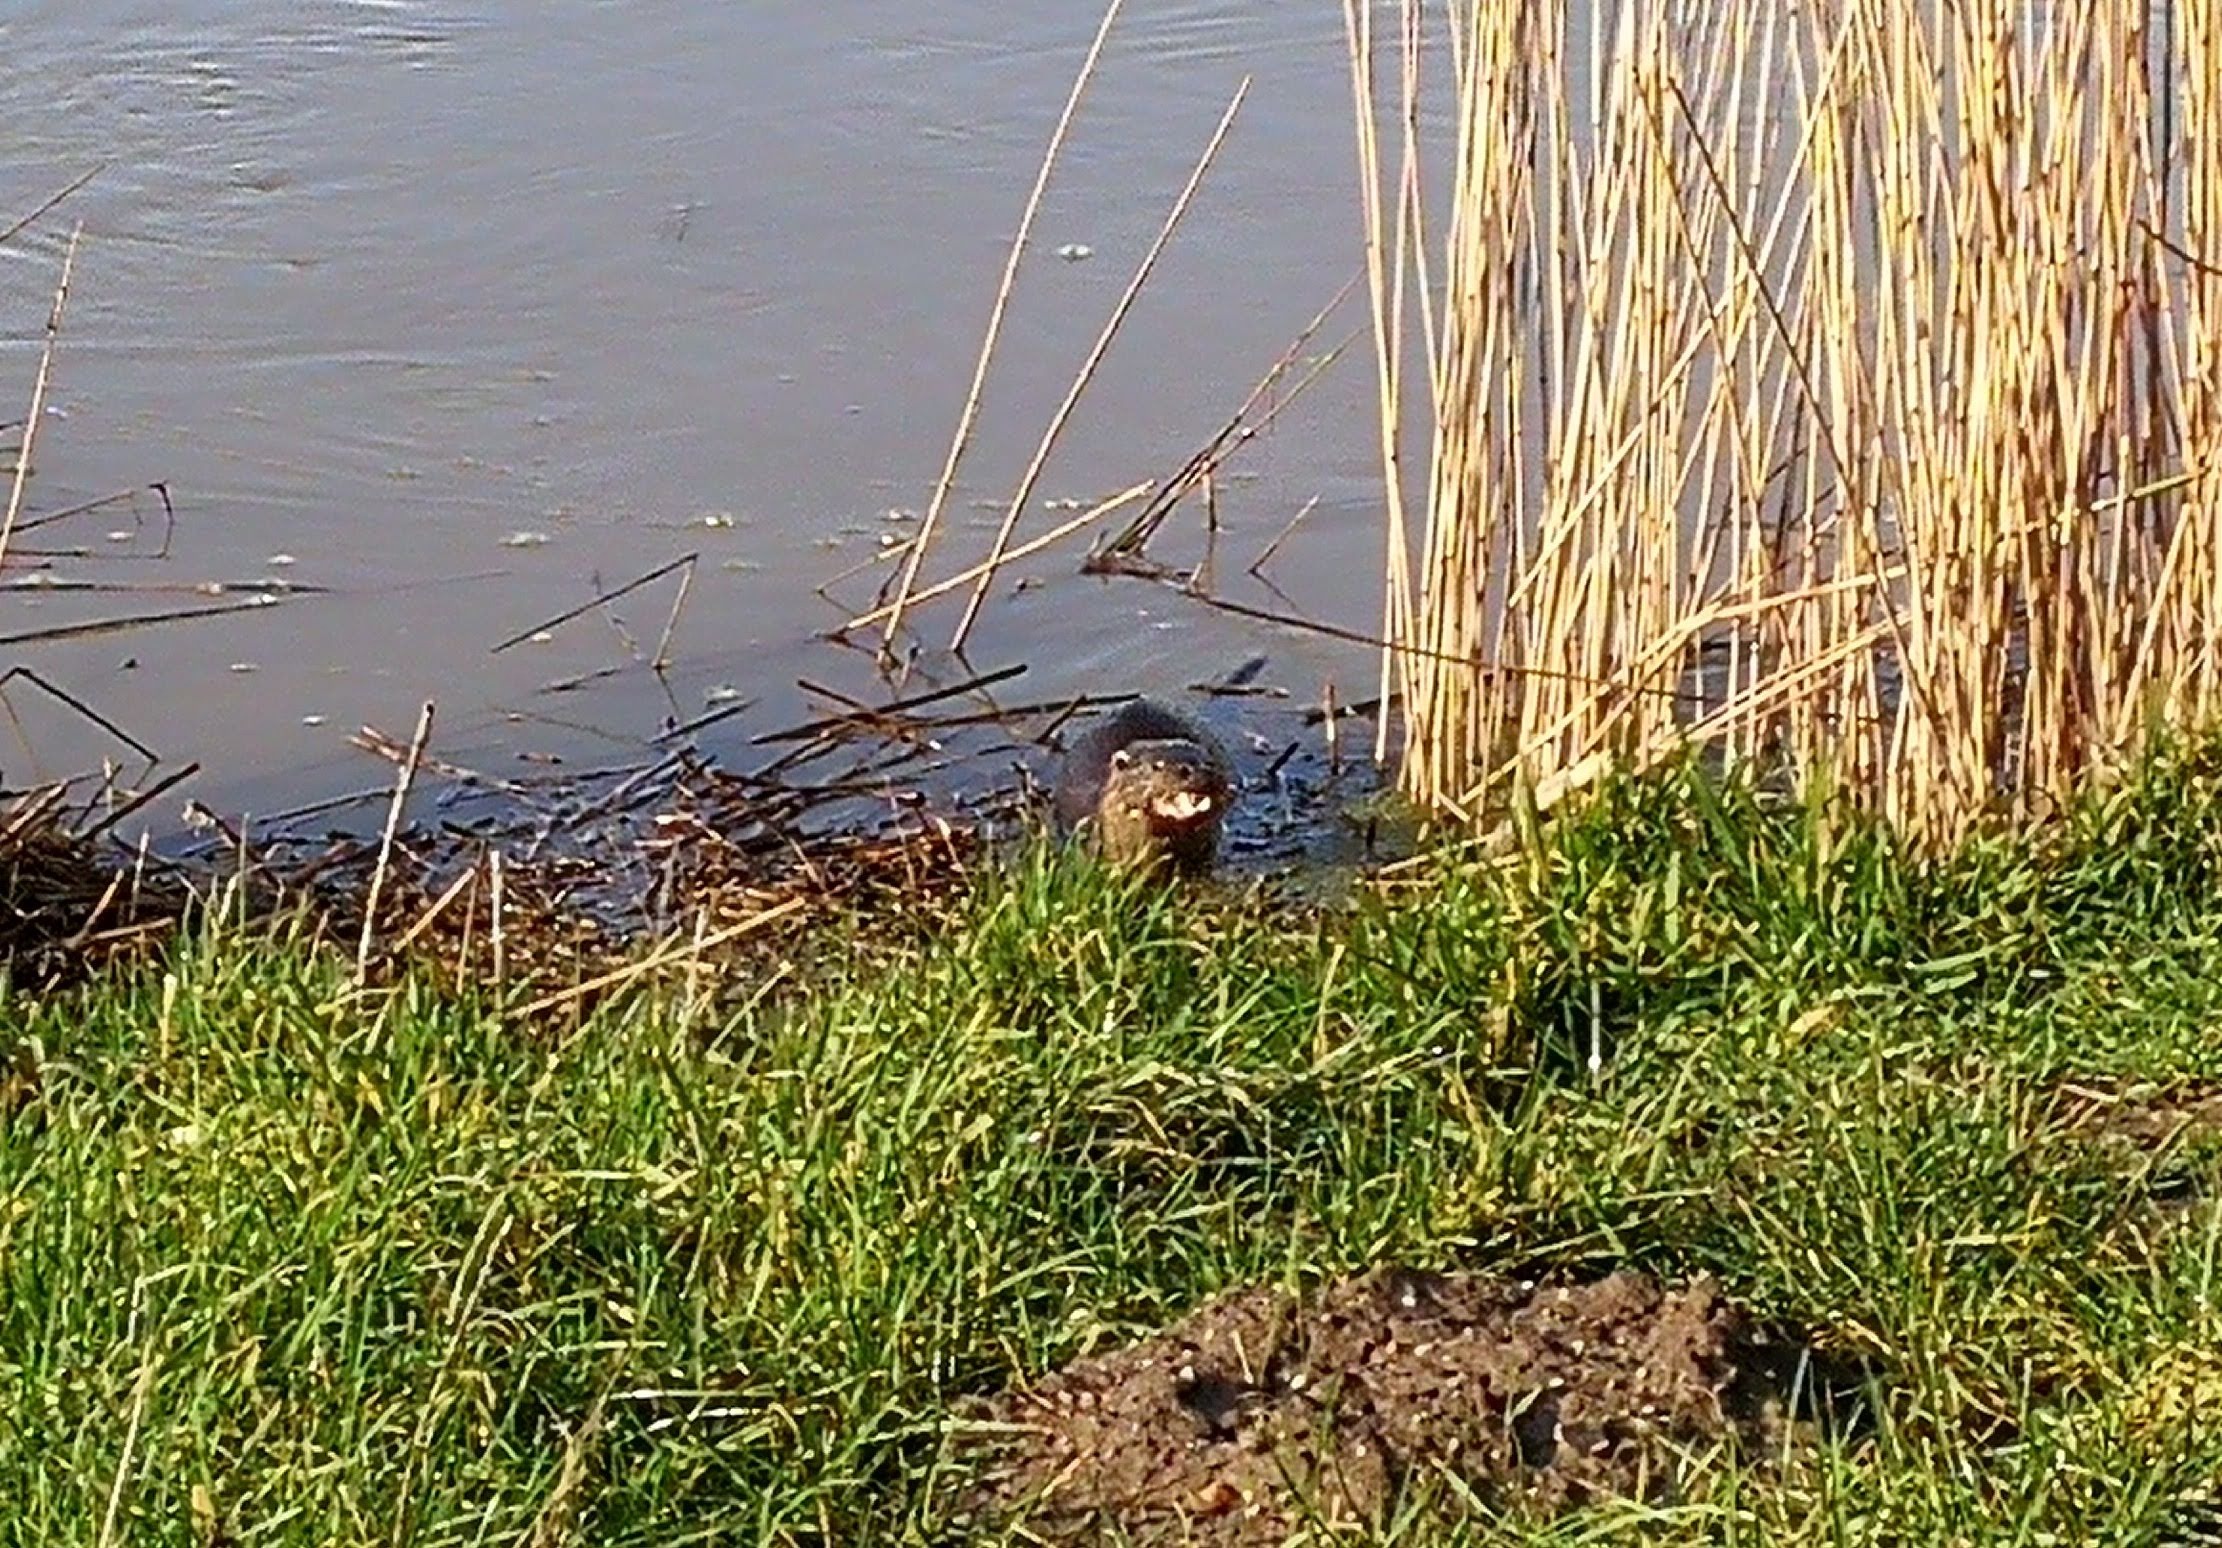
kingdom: Animalia
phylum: Chordata
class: Mammalia
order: Carnivora
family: Mustelidae
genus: Lutra
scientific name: Lutra lutra
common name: Odder
